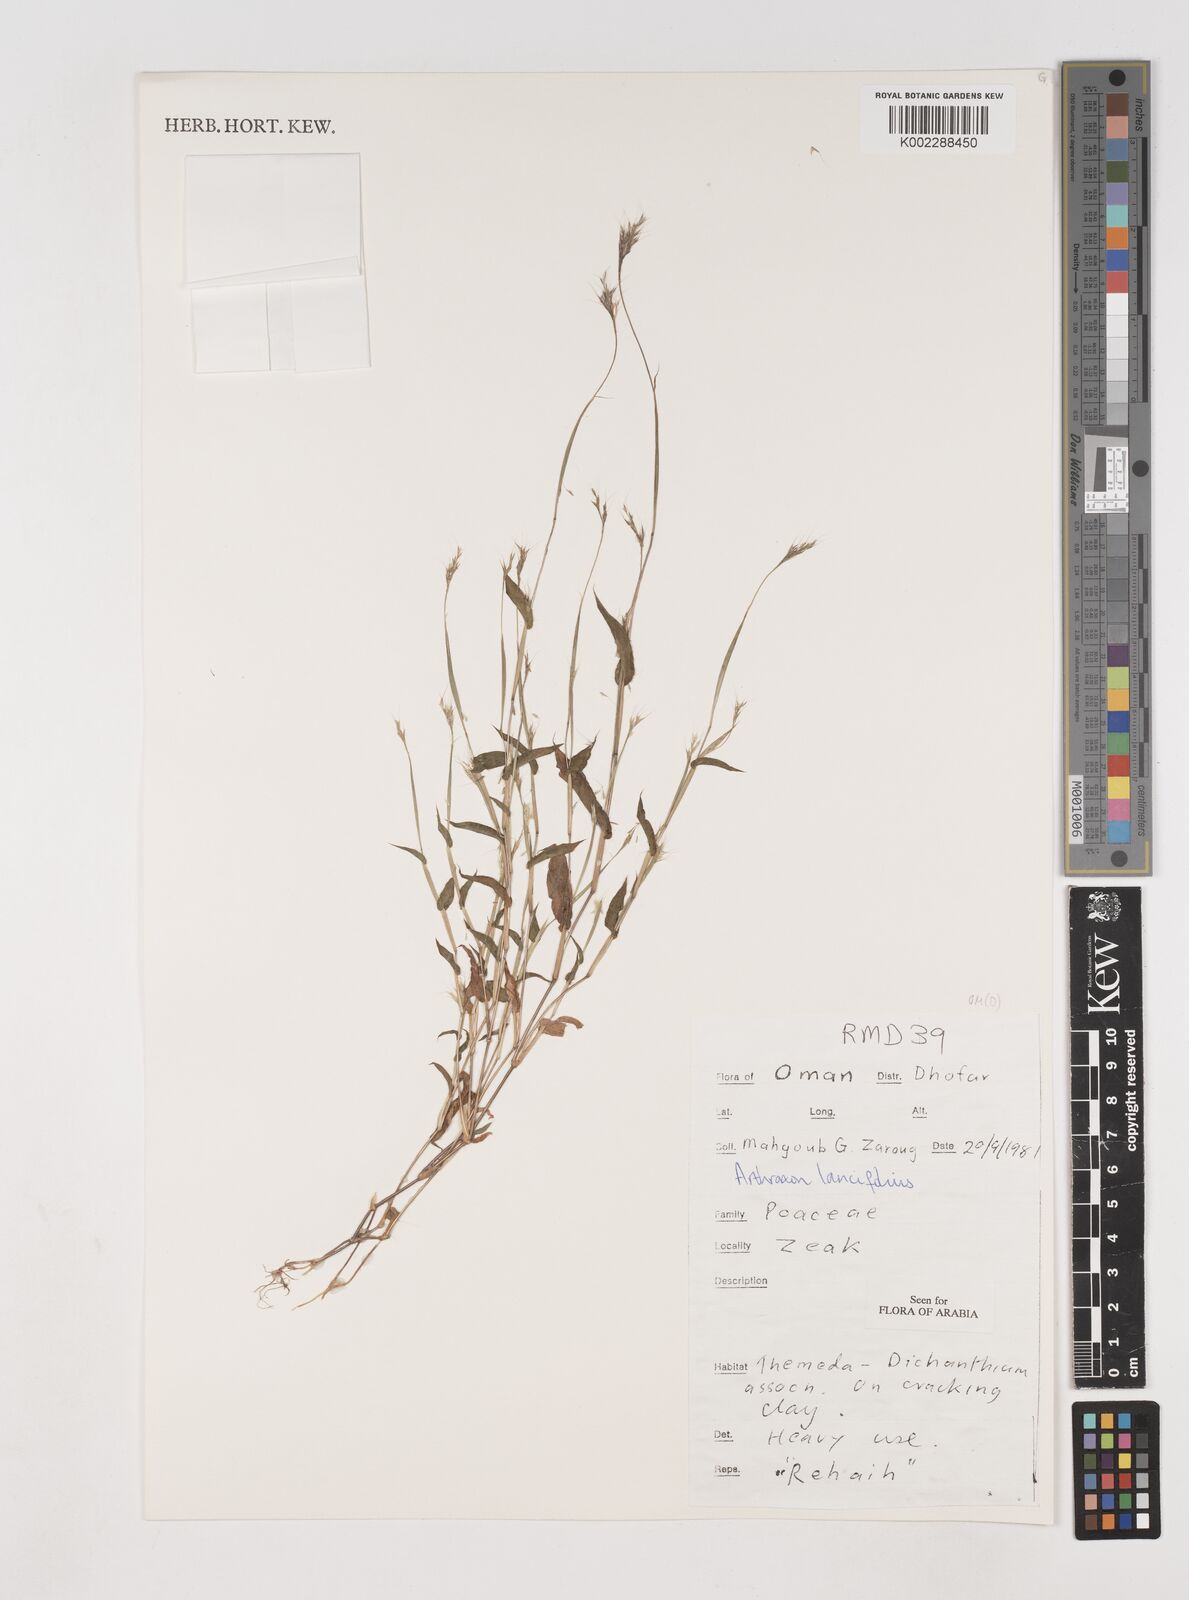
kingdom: Plantae
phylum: Tracheophyta
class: Liliopsida
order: Poales
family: Poaceae
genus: Arthraxon
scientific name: Arthraxon lancifolius
